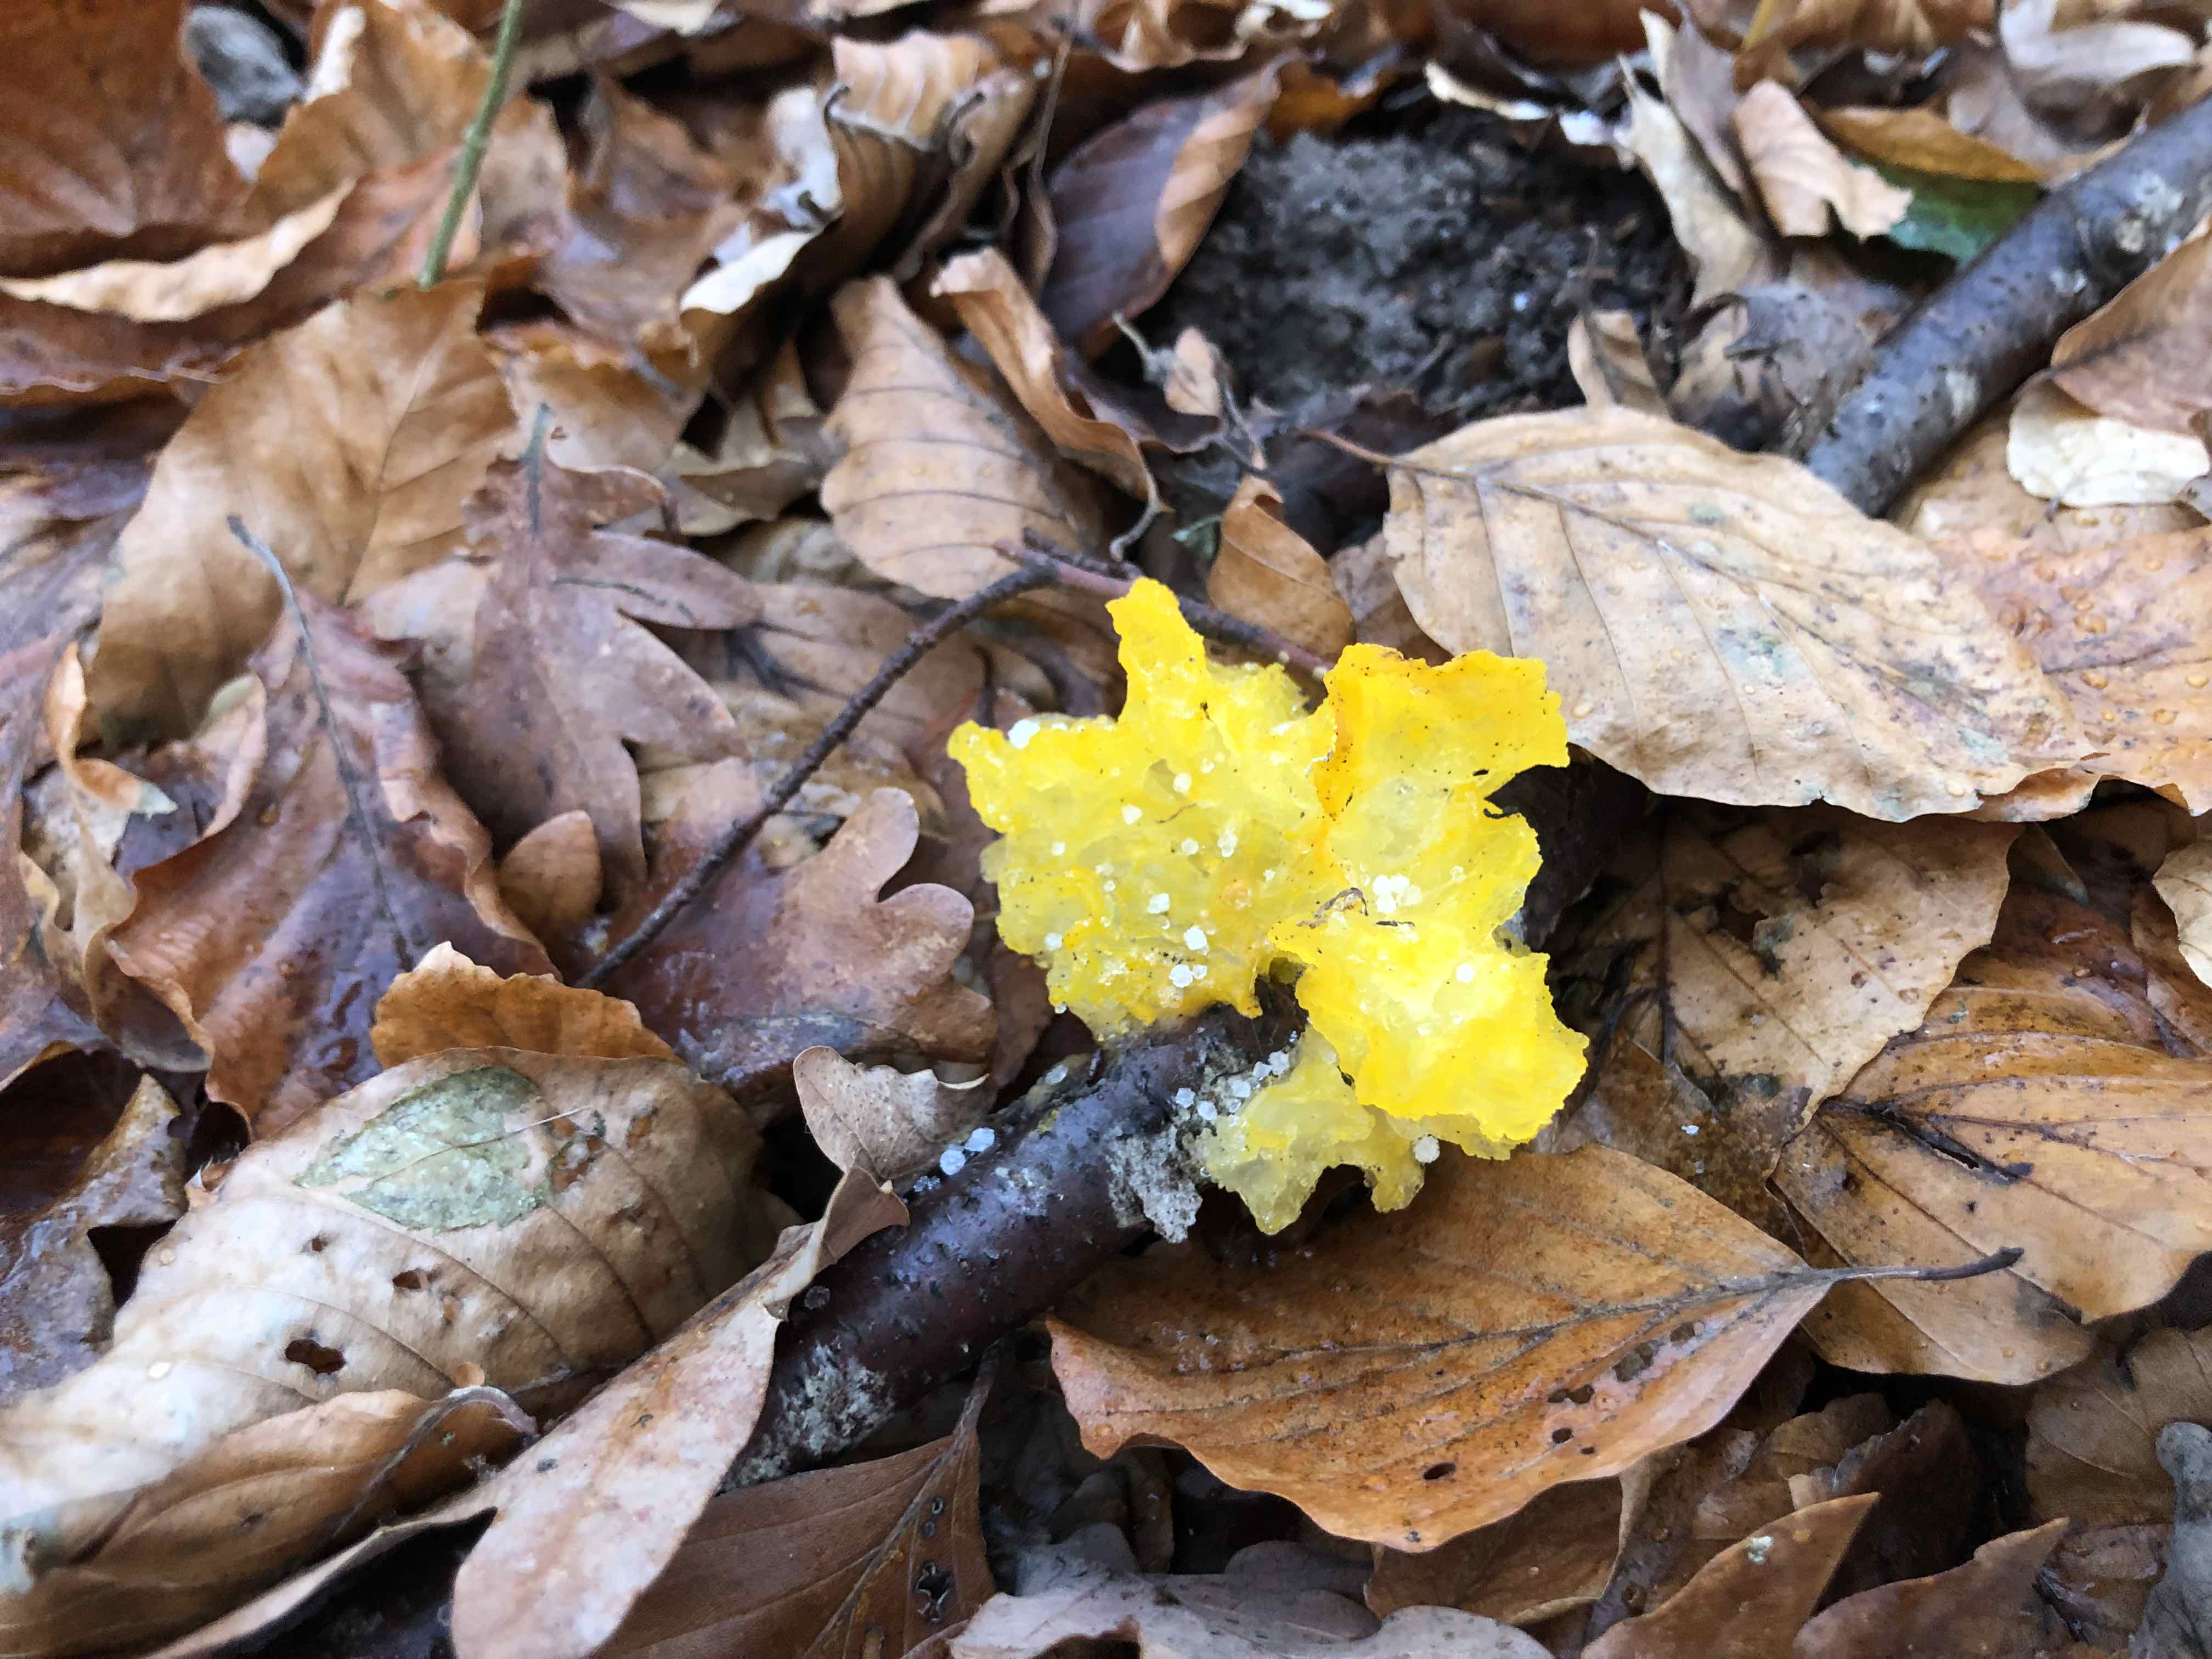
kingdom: Fungi
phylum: Basidiomycota
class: Tremellomycetes
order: Tremellales
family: Tremellaceae
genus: Tremella
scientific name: Tremella mesenterica
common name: gul bævresvamp
